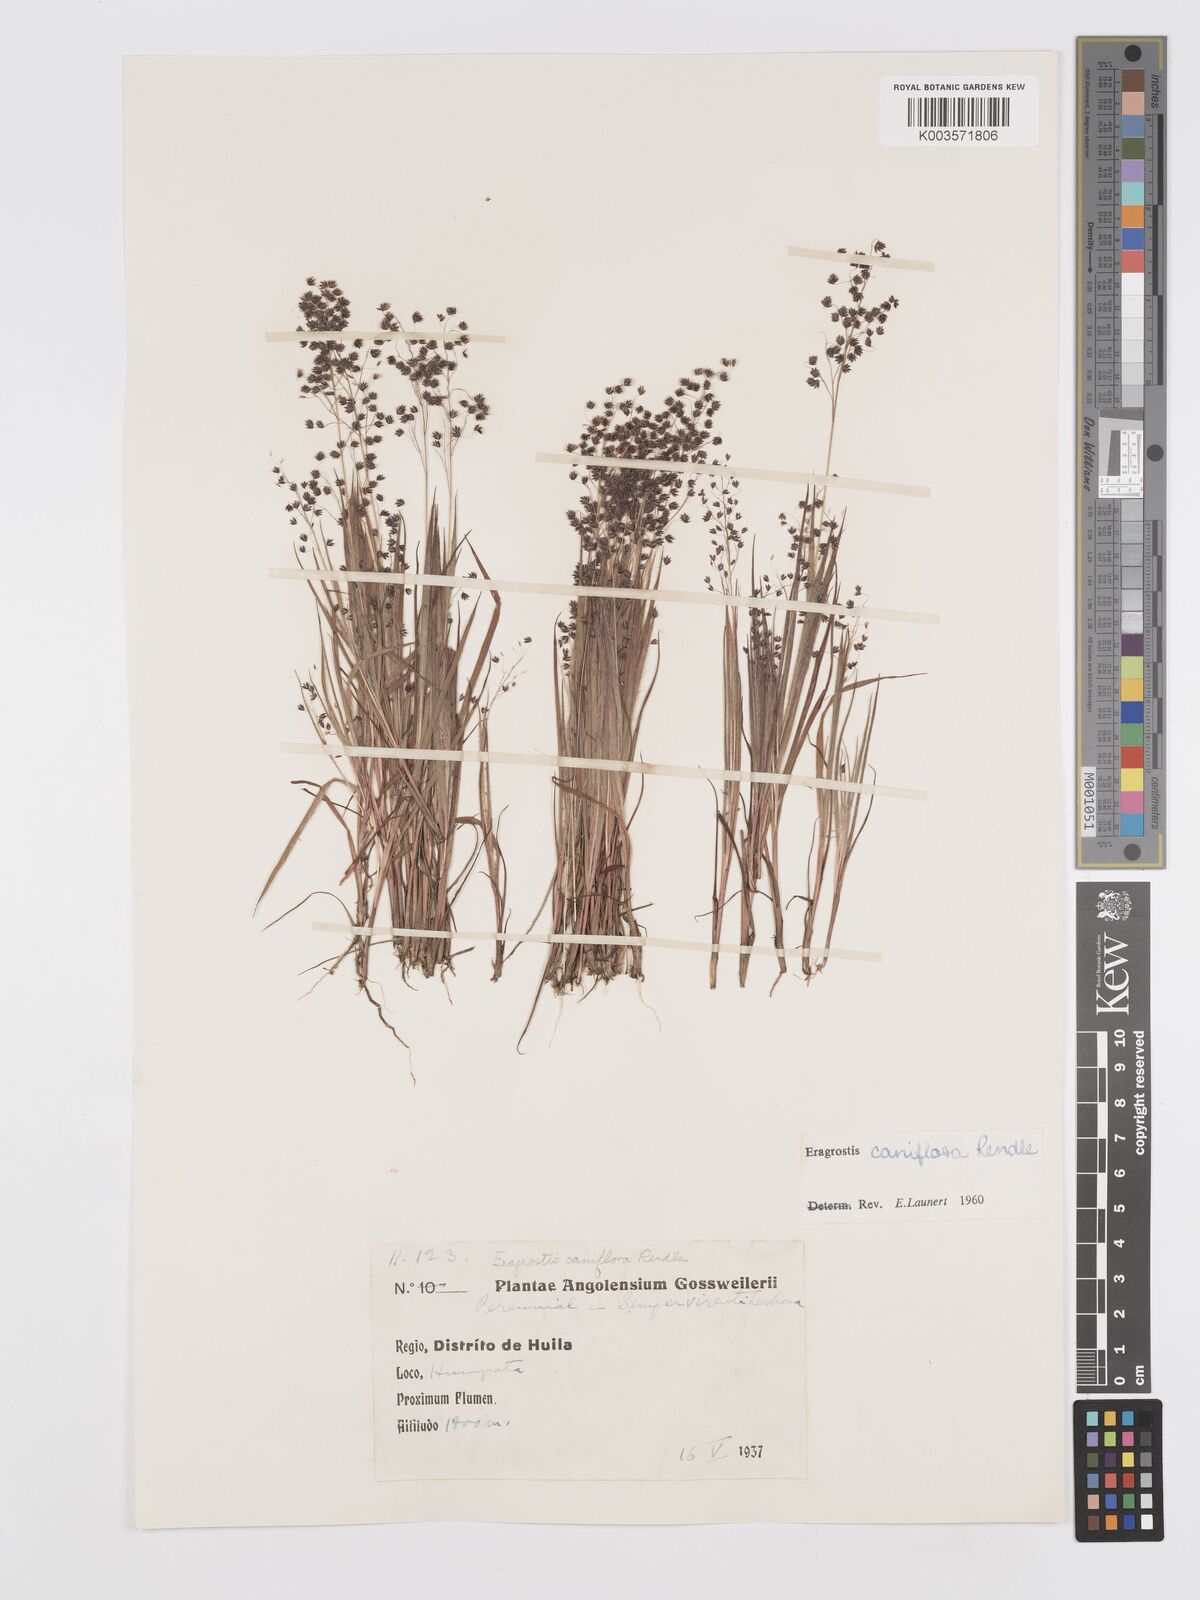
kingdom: Plantae
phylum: Tracheophyta
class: Liliopsida
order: Poales
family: Poaceae
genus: Eragrostis
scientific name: Eragrostis caniflora
